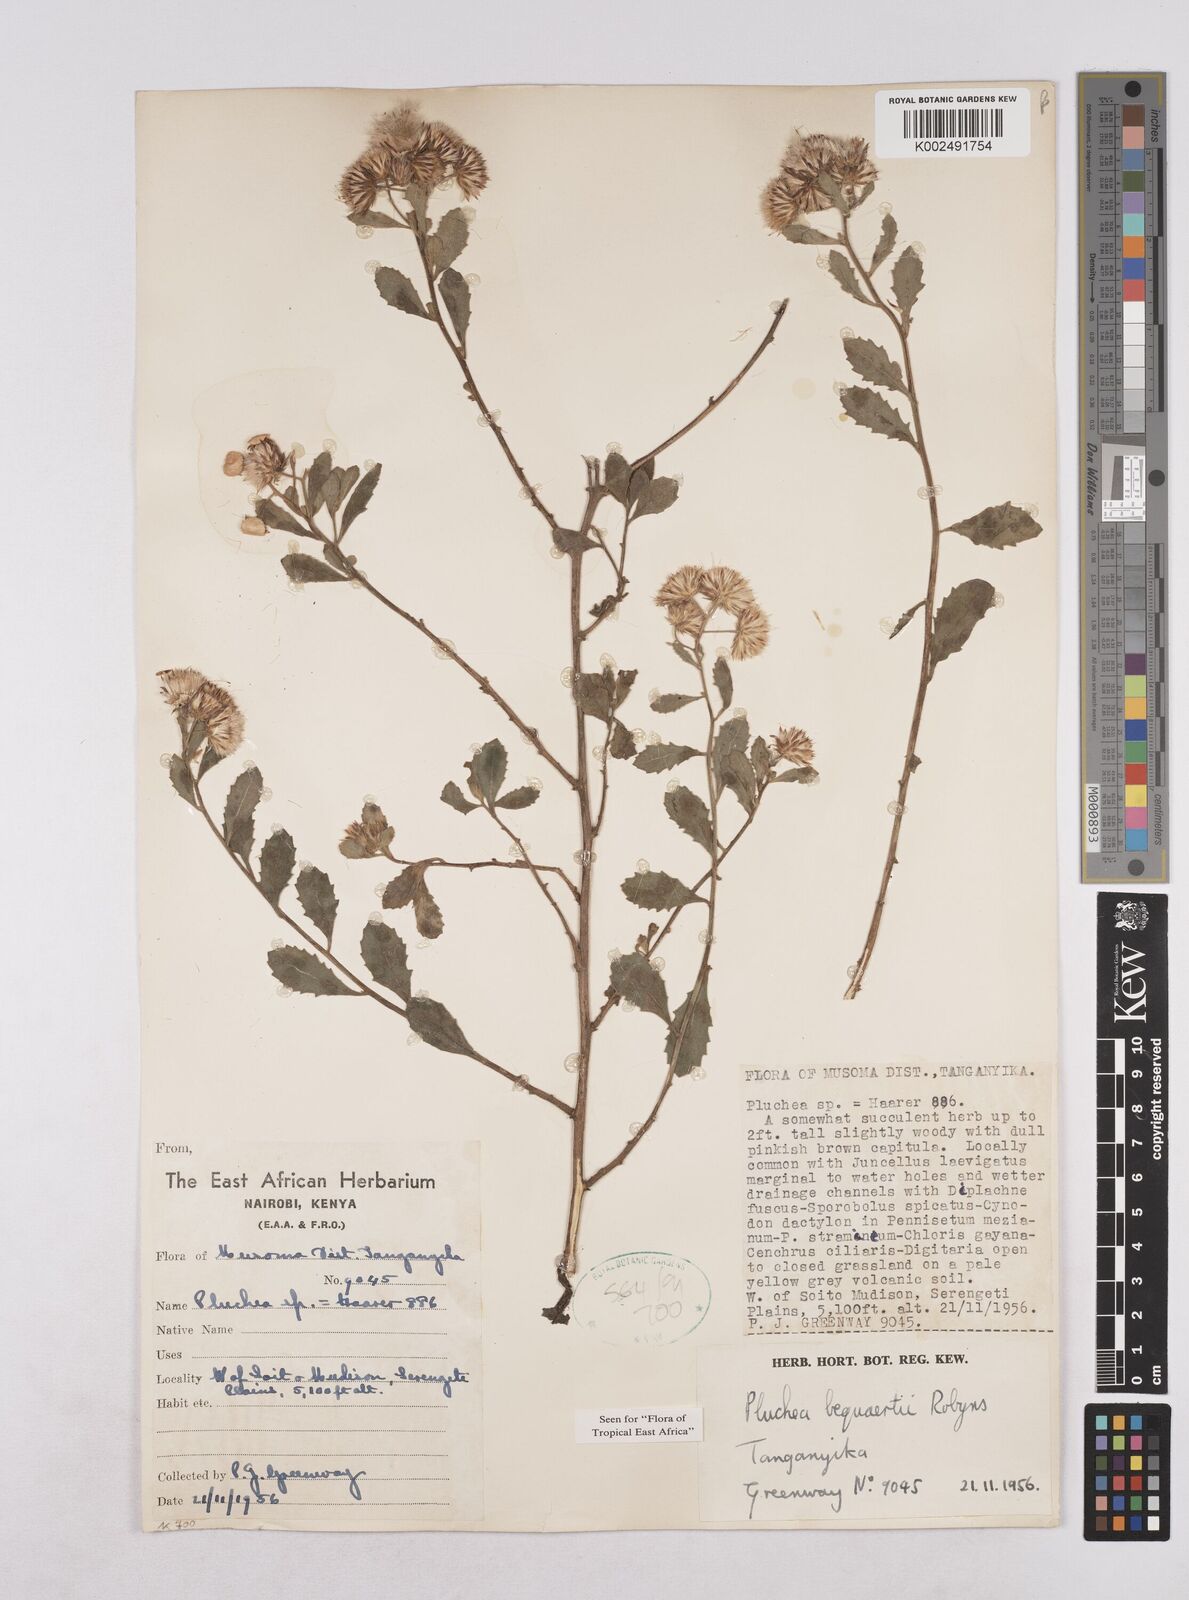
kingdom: Plantae
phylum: Tracheophyta
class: Magnoliopsida
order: Asterales
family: Asteraceae
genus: Pluchea
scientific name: Pluchea sordida
